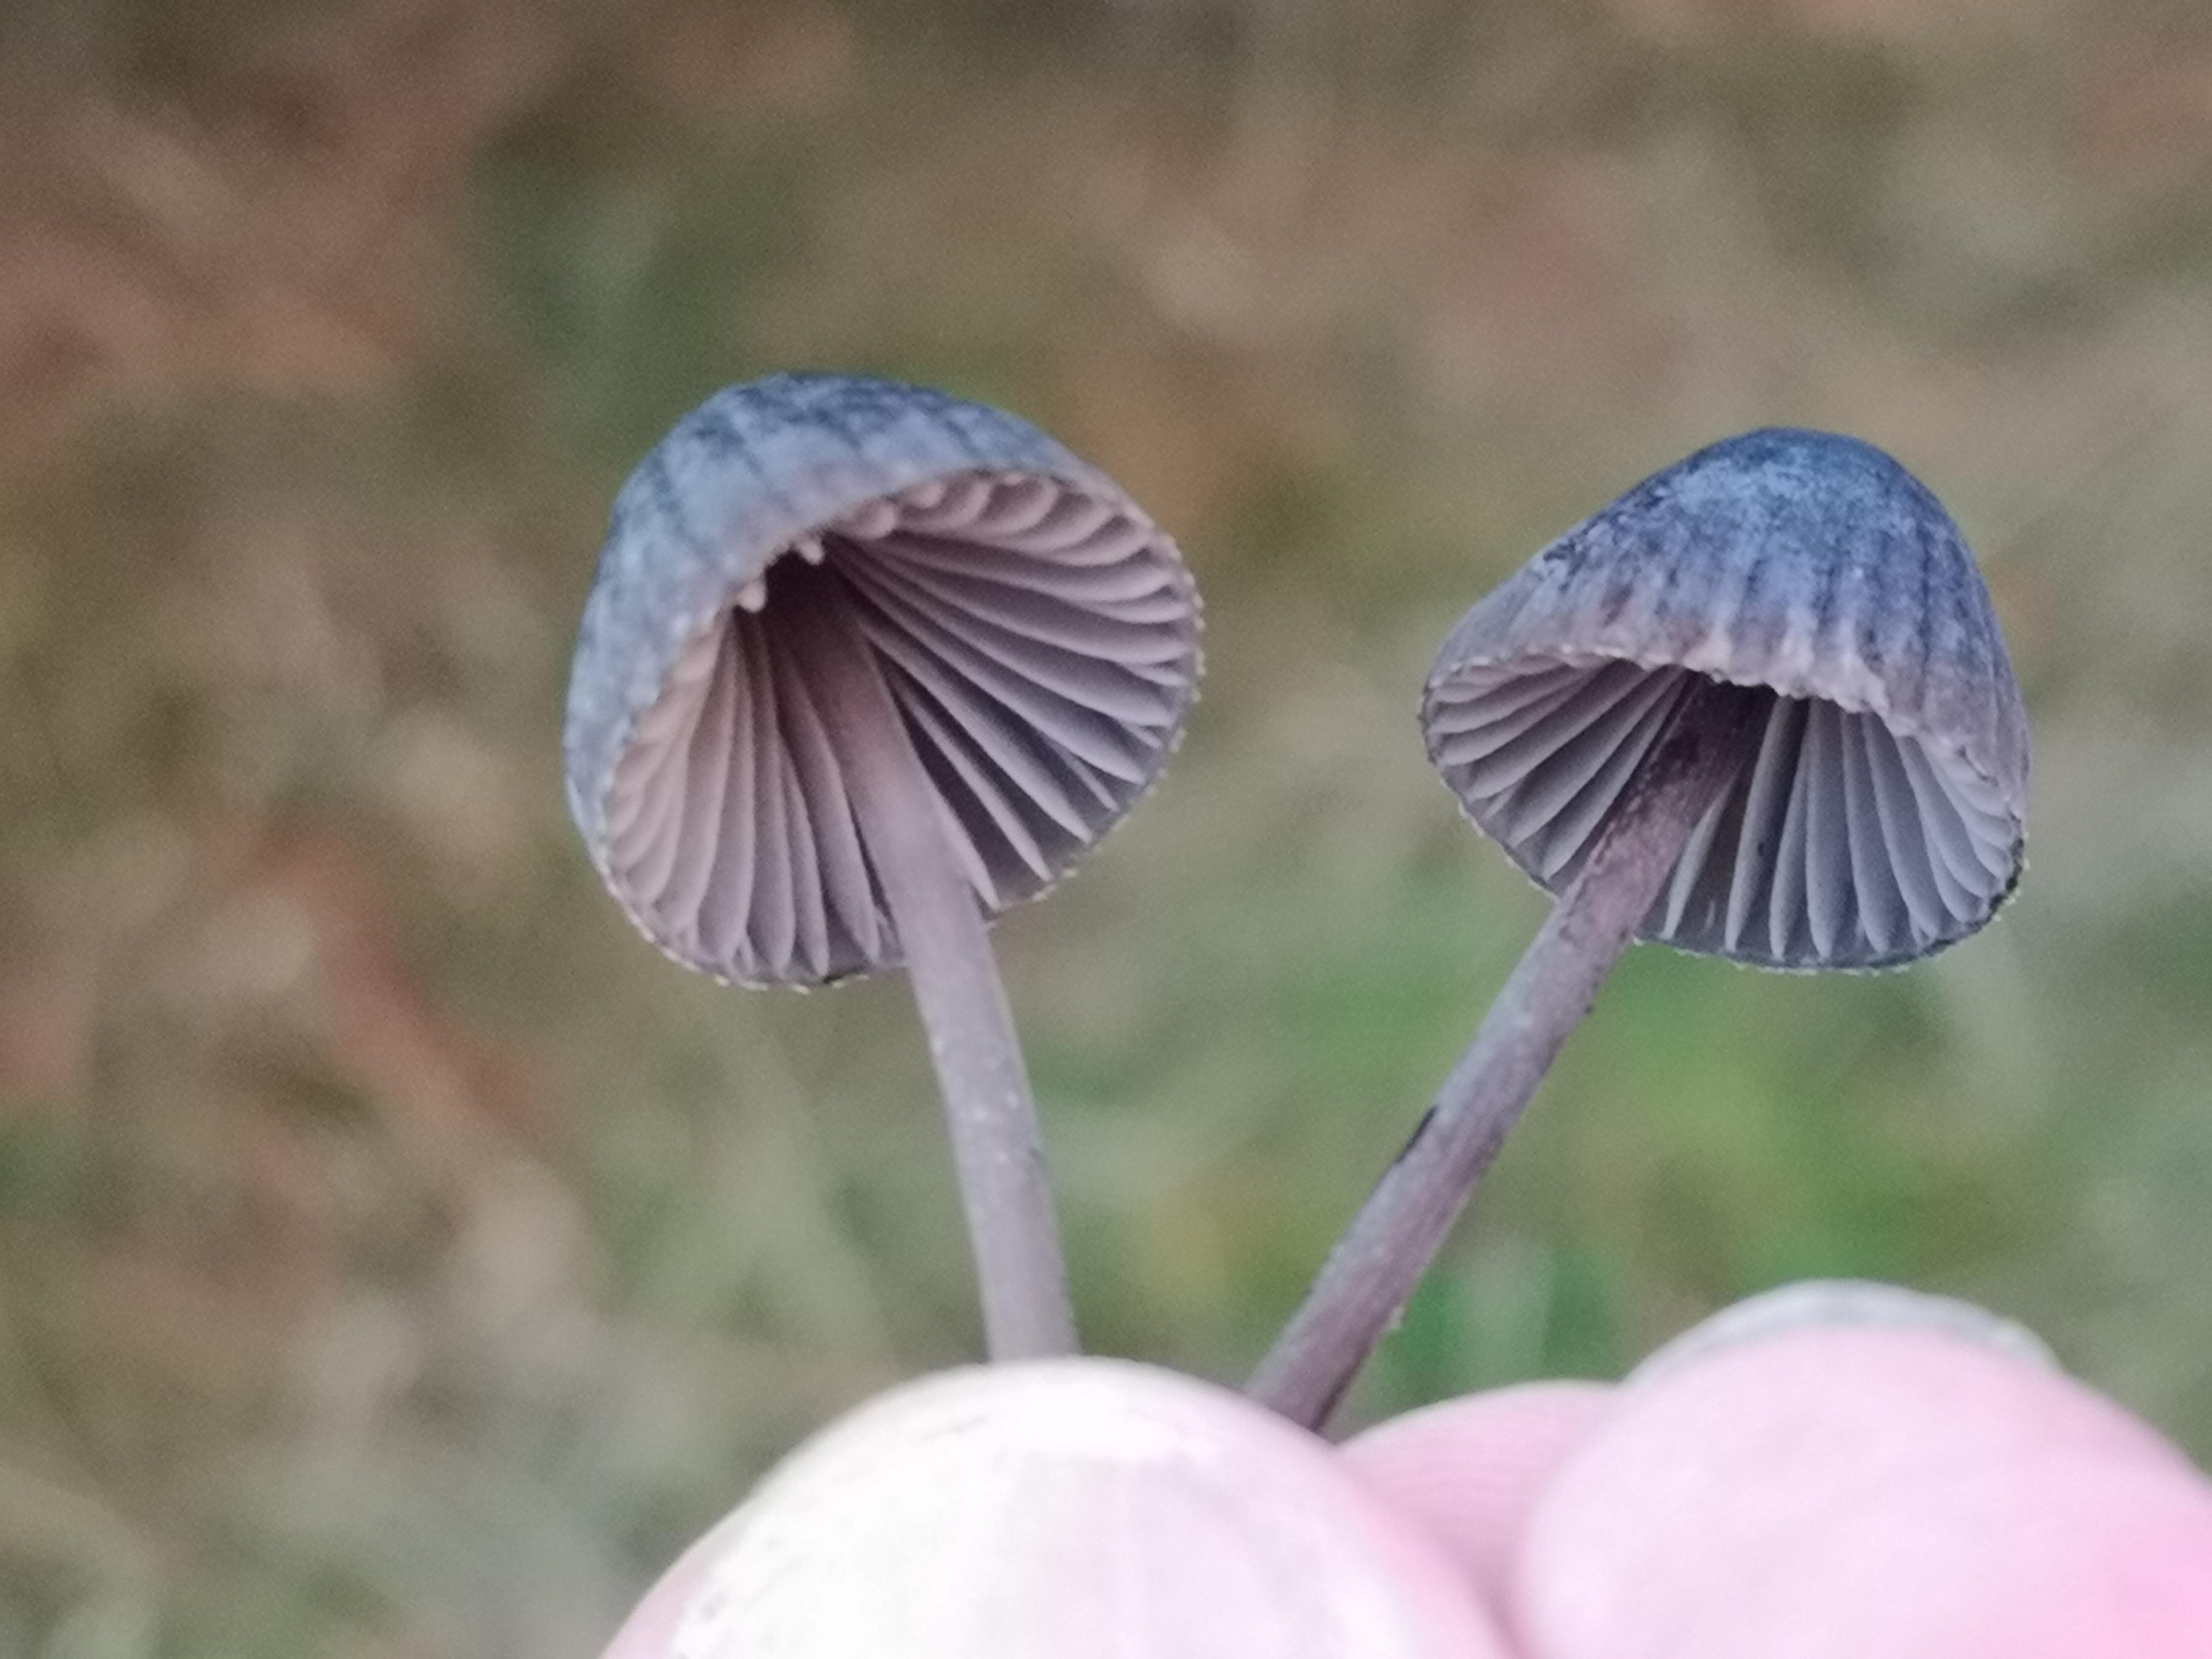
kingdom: Fungi
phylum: Basidiomycota
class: Agaricomycetes
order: Agaricales
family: Mycenaceae
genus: Mycena
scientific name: Mycena galopus
